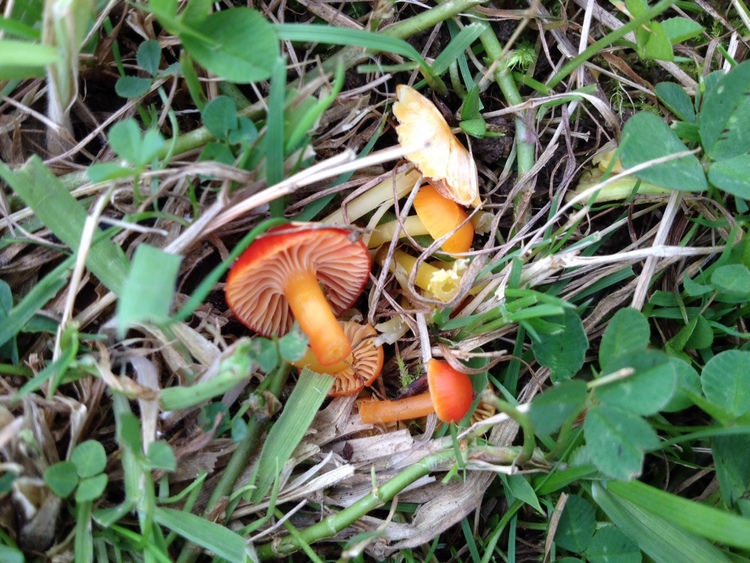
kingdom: Fungi
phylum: Basidiomycota
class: Agaricomycetes
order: Agaricales
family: Hygrophoraceae
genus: Hygrocybe
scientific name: Hygrocybe insipida
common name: liden vokshat
